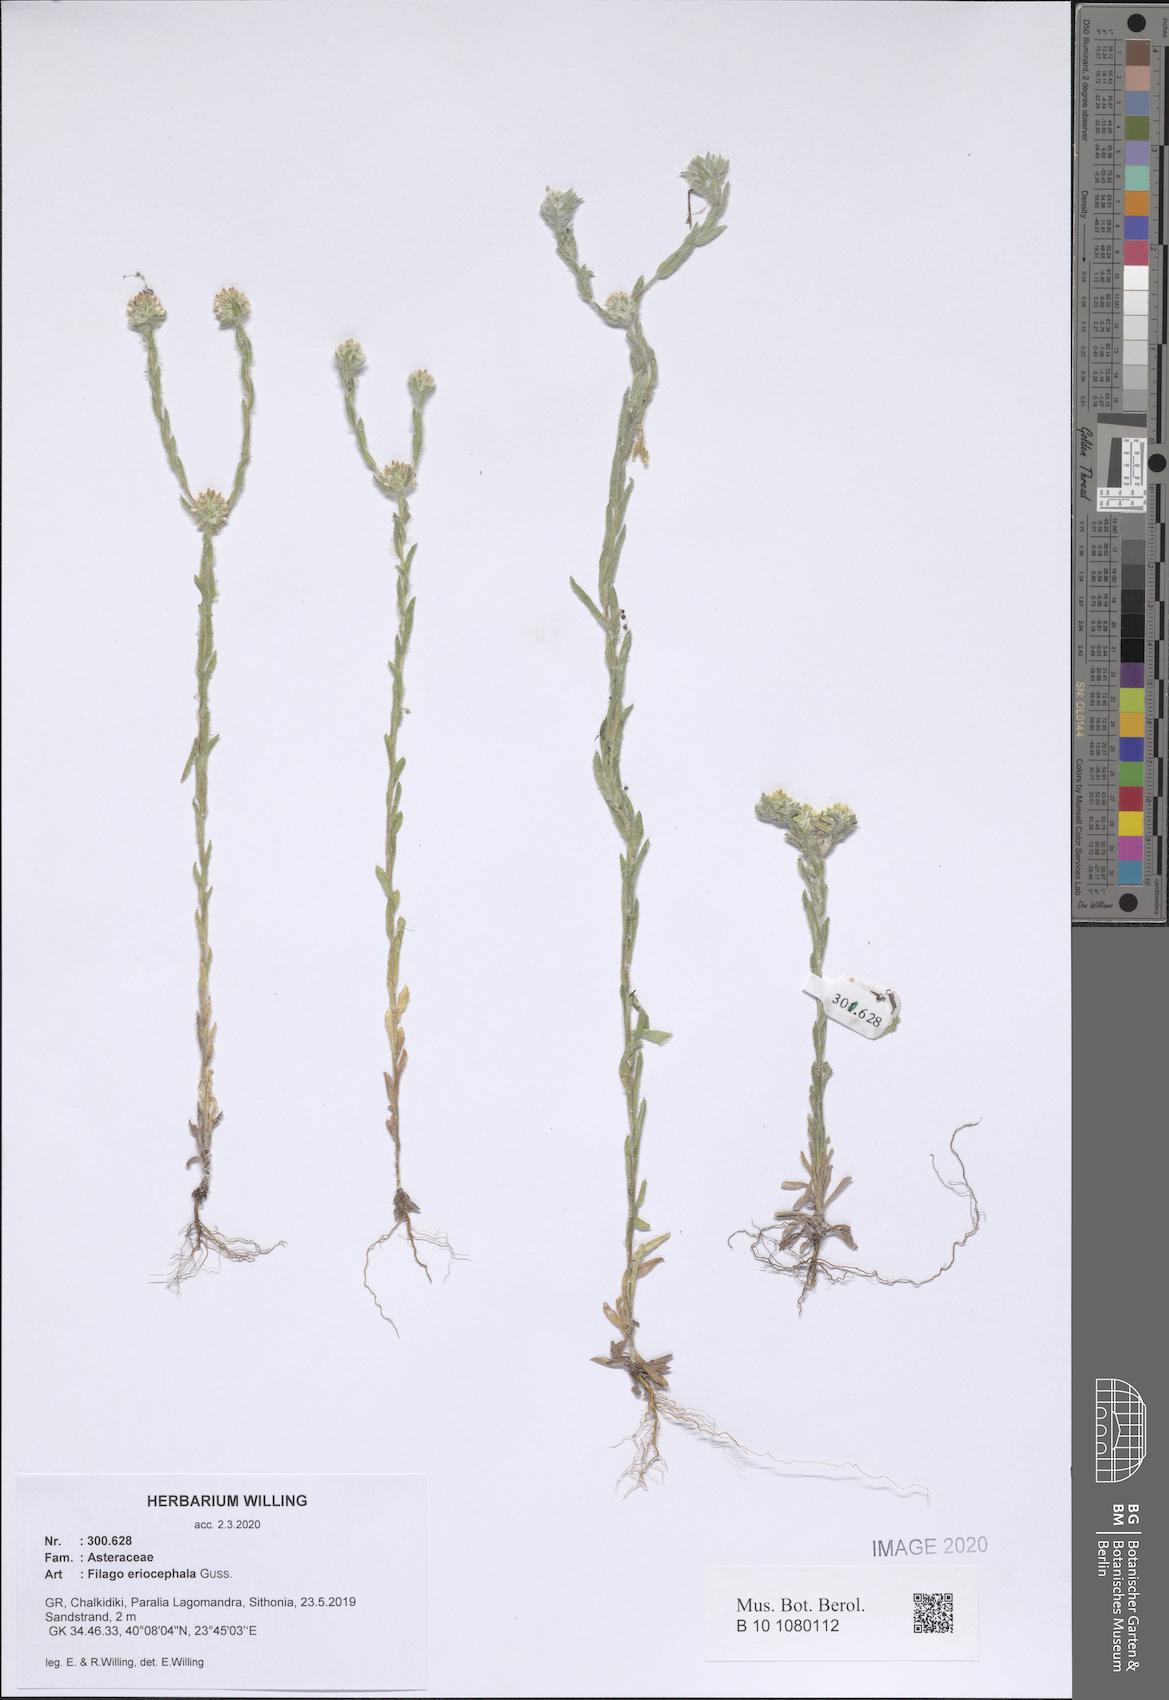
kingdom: Plantae
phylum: Tracheophyta
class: Magnoliopsida
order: Asterales
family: Asteraceae
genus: Filago
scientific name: Filago eriocephala
